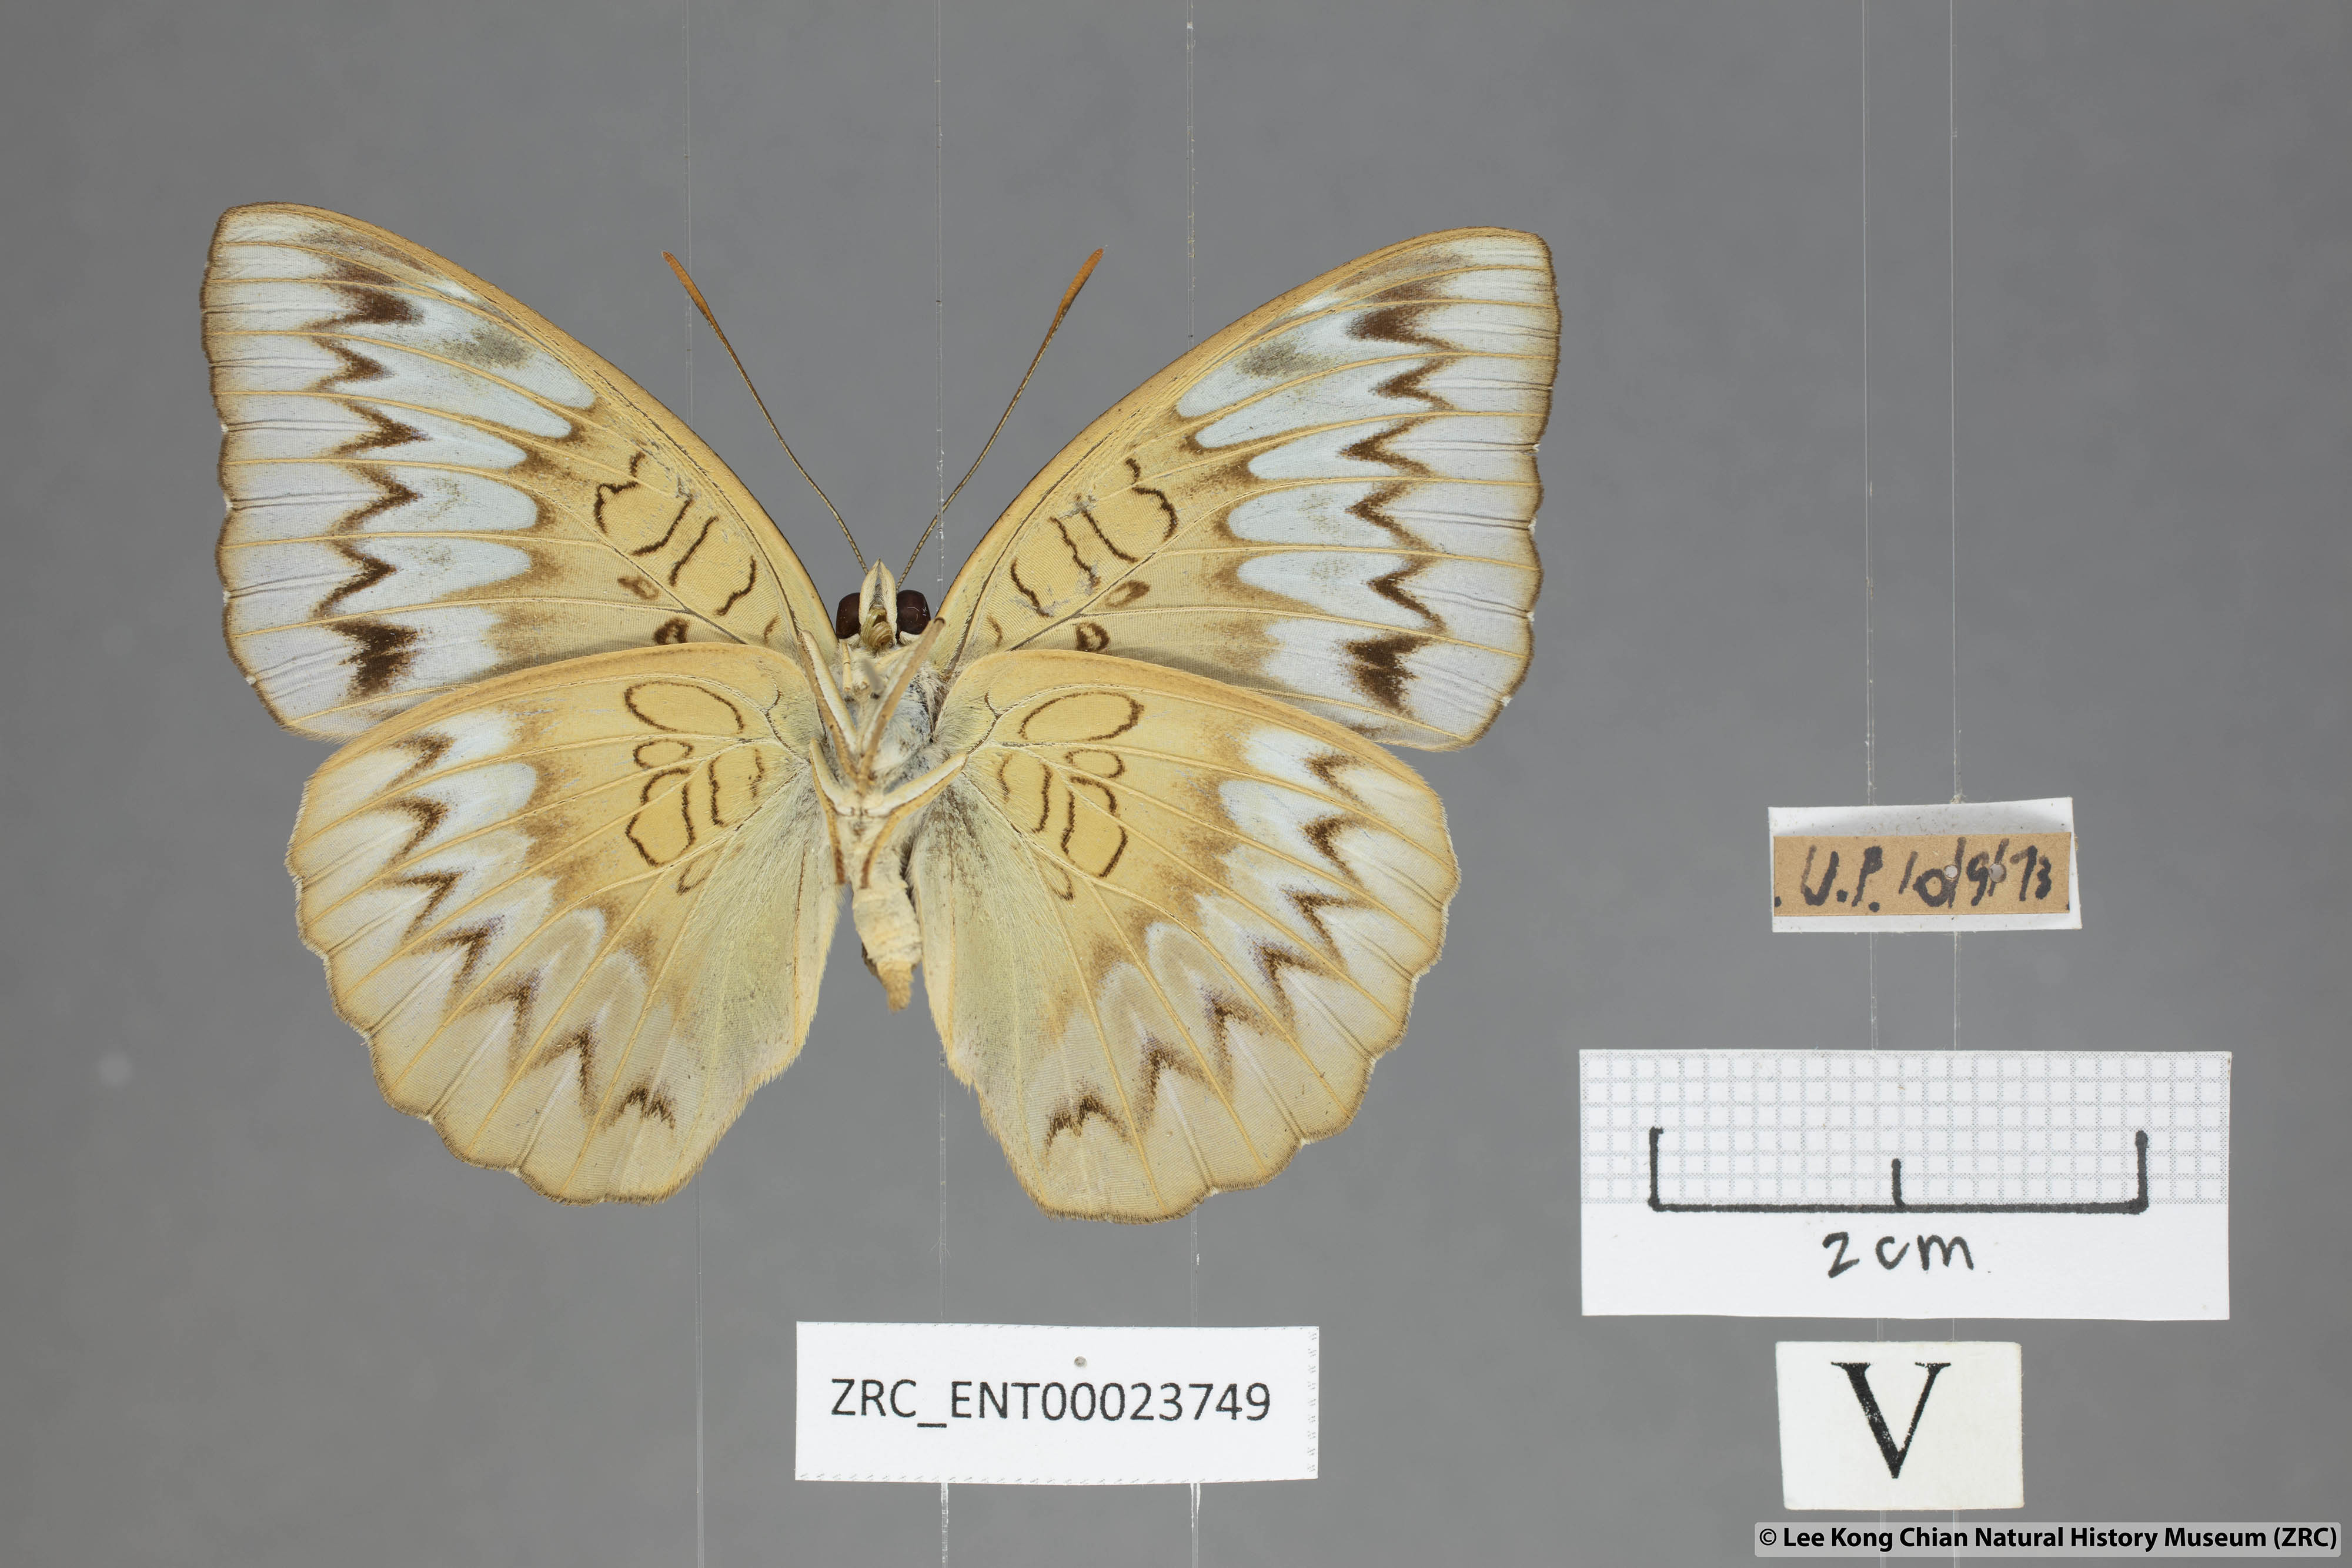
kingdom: Animalia
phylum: Arthropoda
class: Insecta
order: Lepidoptera
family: Nymphalidae
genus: Euthalia
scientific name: Euthalia monina
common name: Powdered baron
